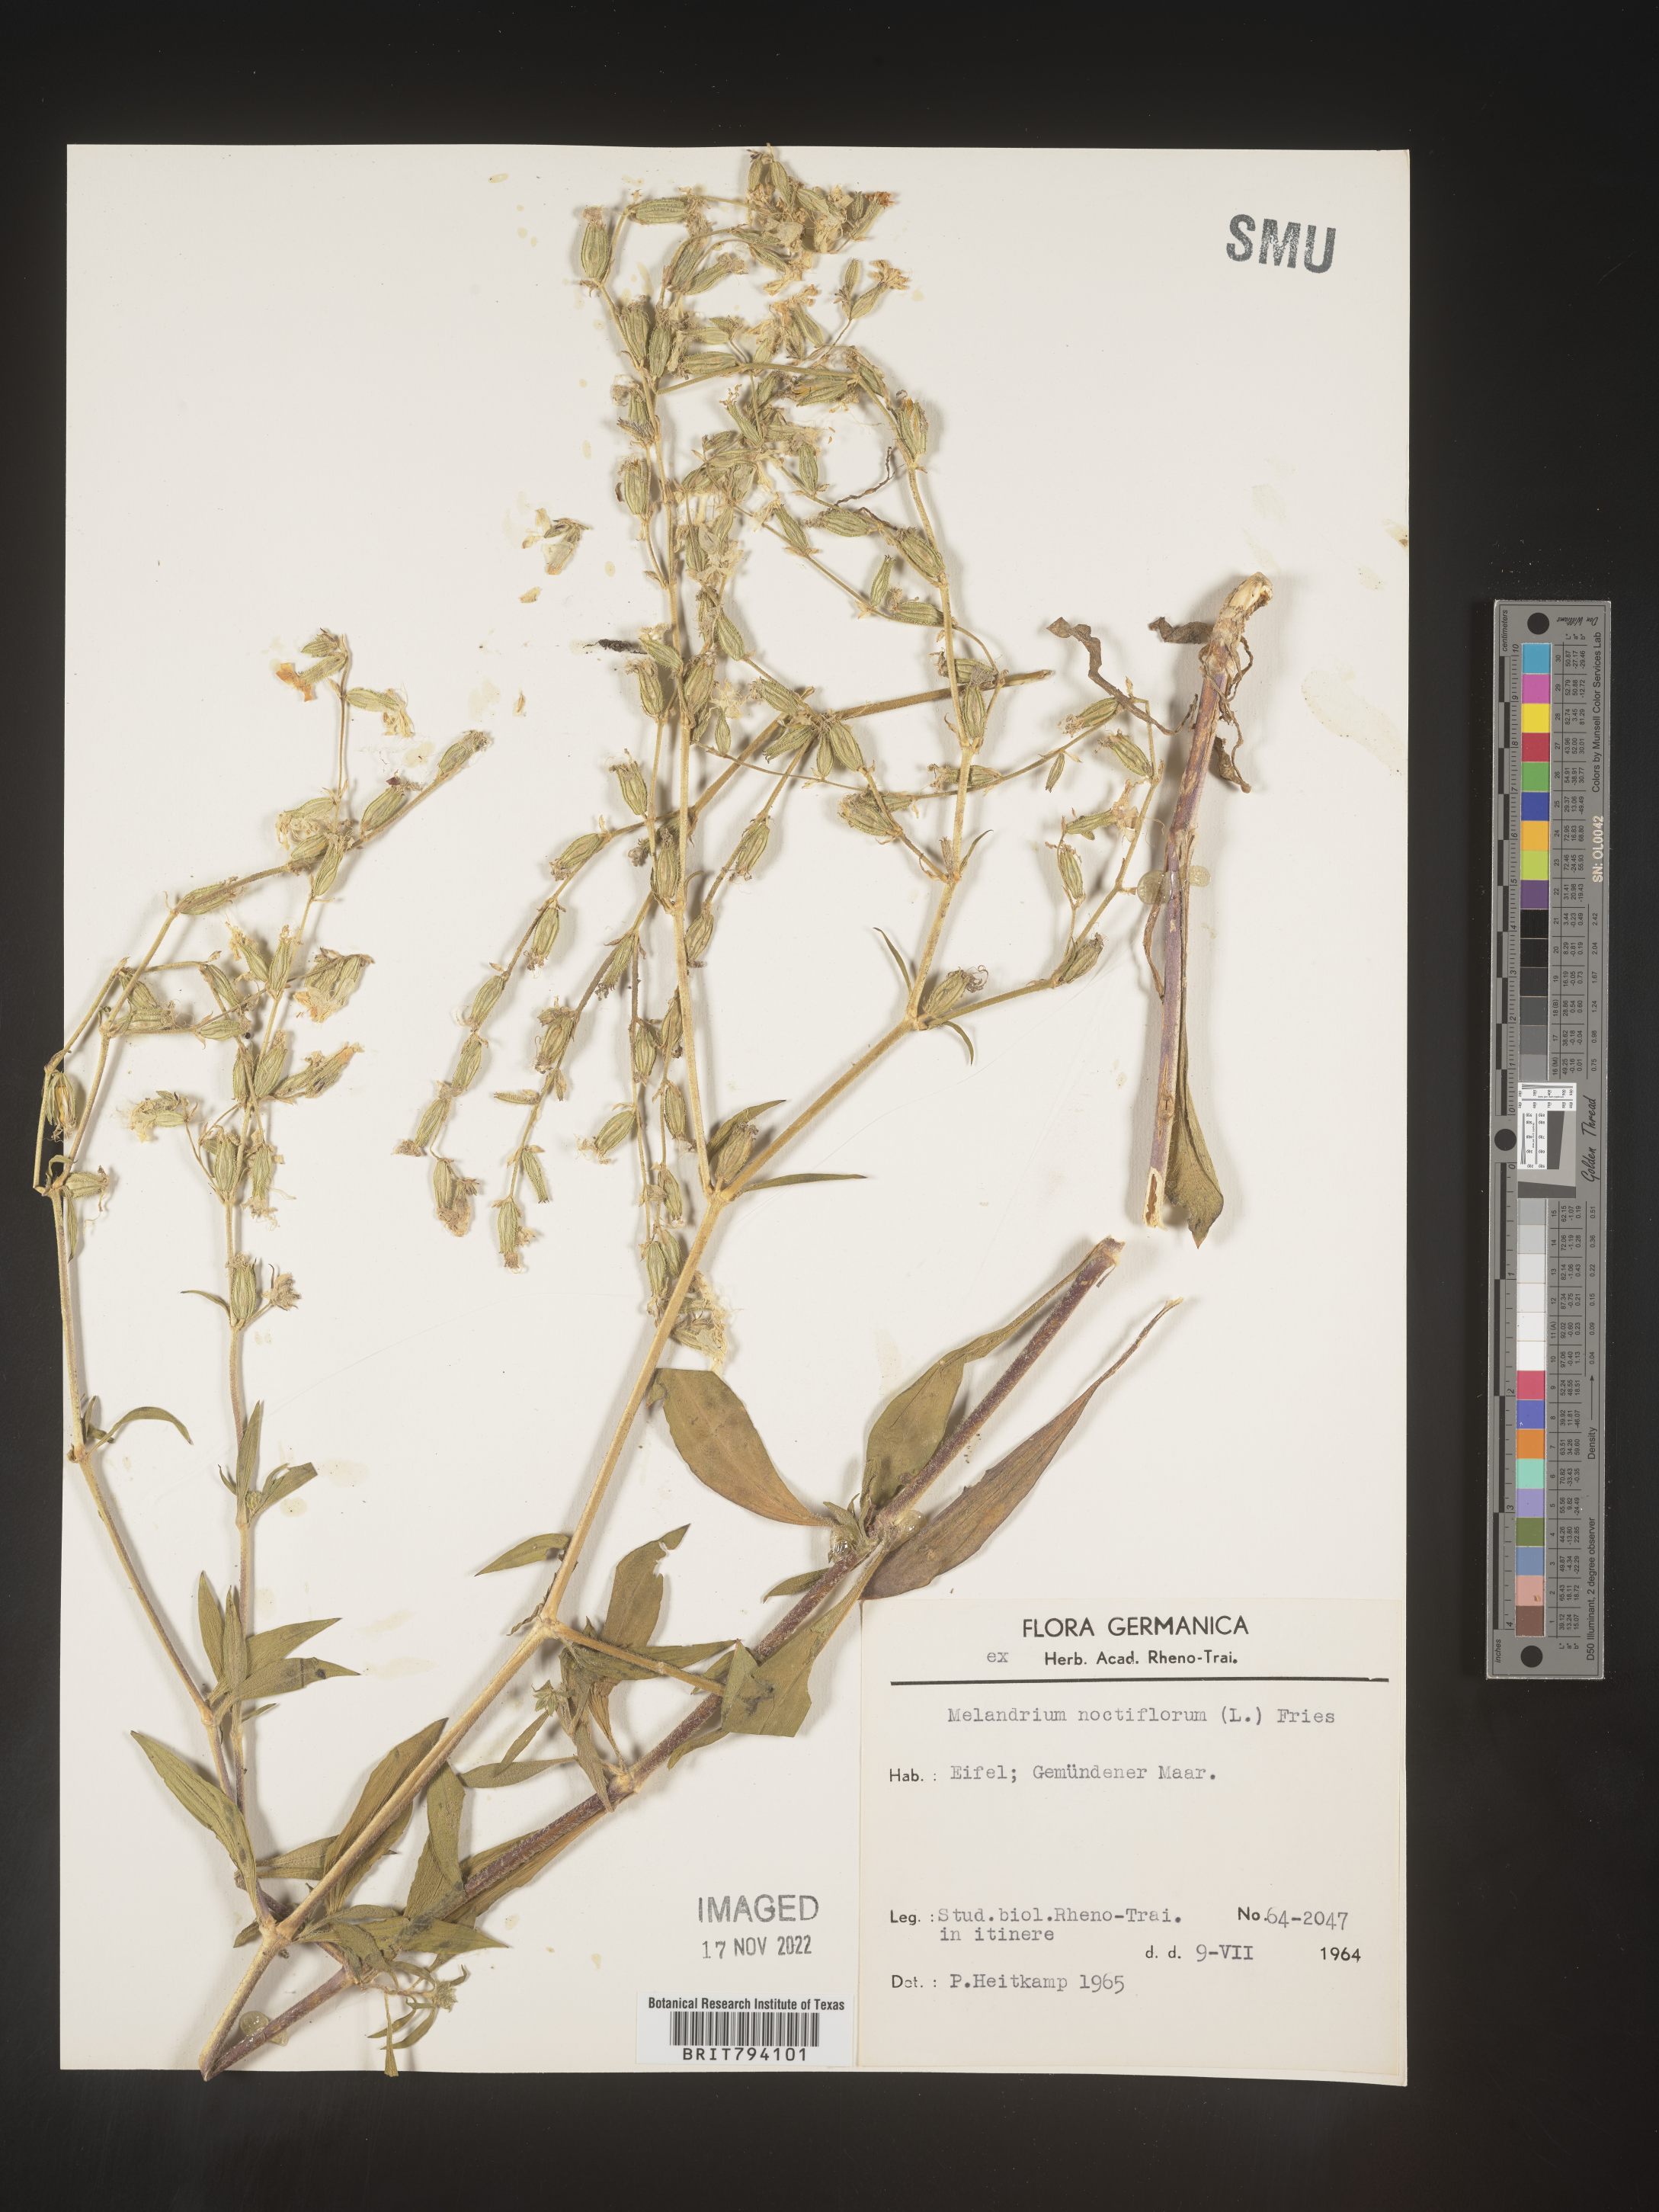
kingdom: Plantae
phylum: Tracheophyta
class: Magnoliopsida
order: Caryophyllales
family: Caryophyllaceae
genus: Silene
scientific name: Silene noctiflora
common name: Night-flowering catchfly
